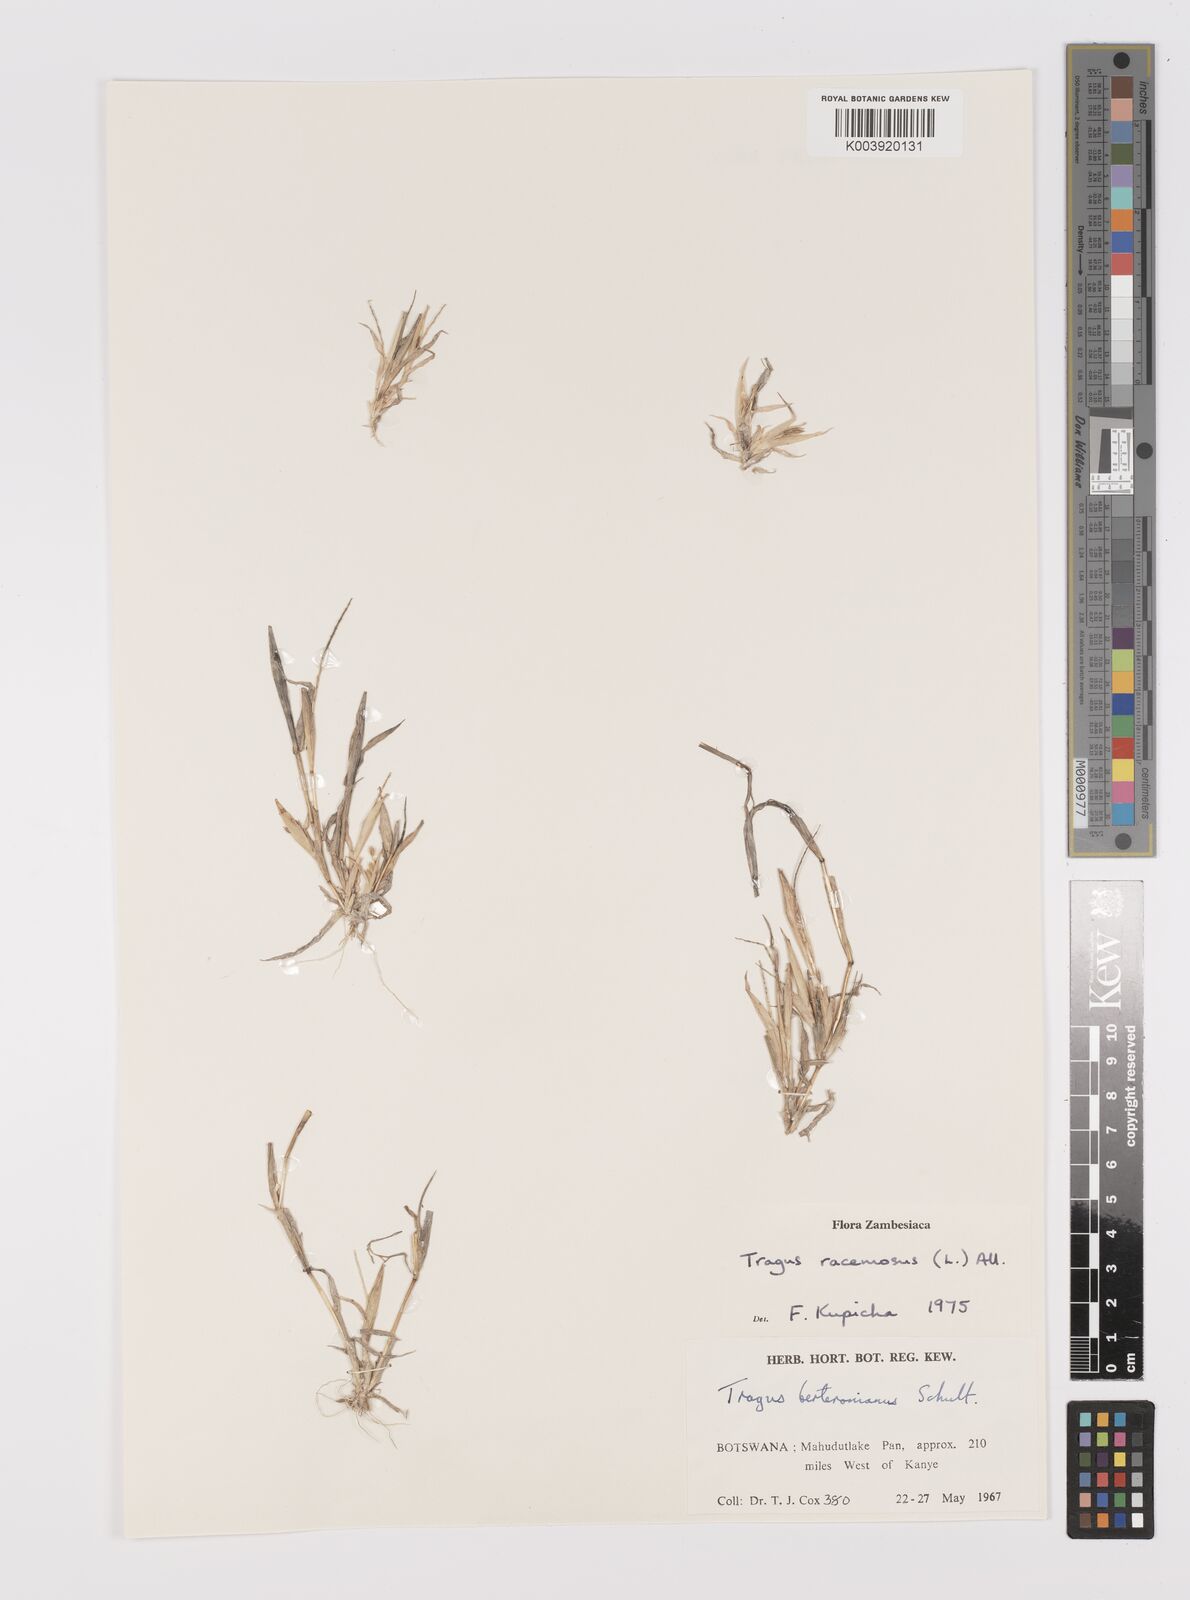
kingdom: Plantae
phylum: Tracheophyta
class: Liliopsida
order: Poales
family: Poaceae
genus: Tragus
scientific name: Tragus racemosus
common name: European bur-grass
